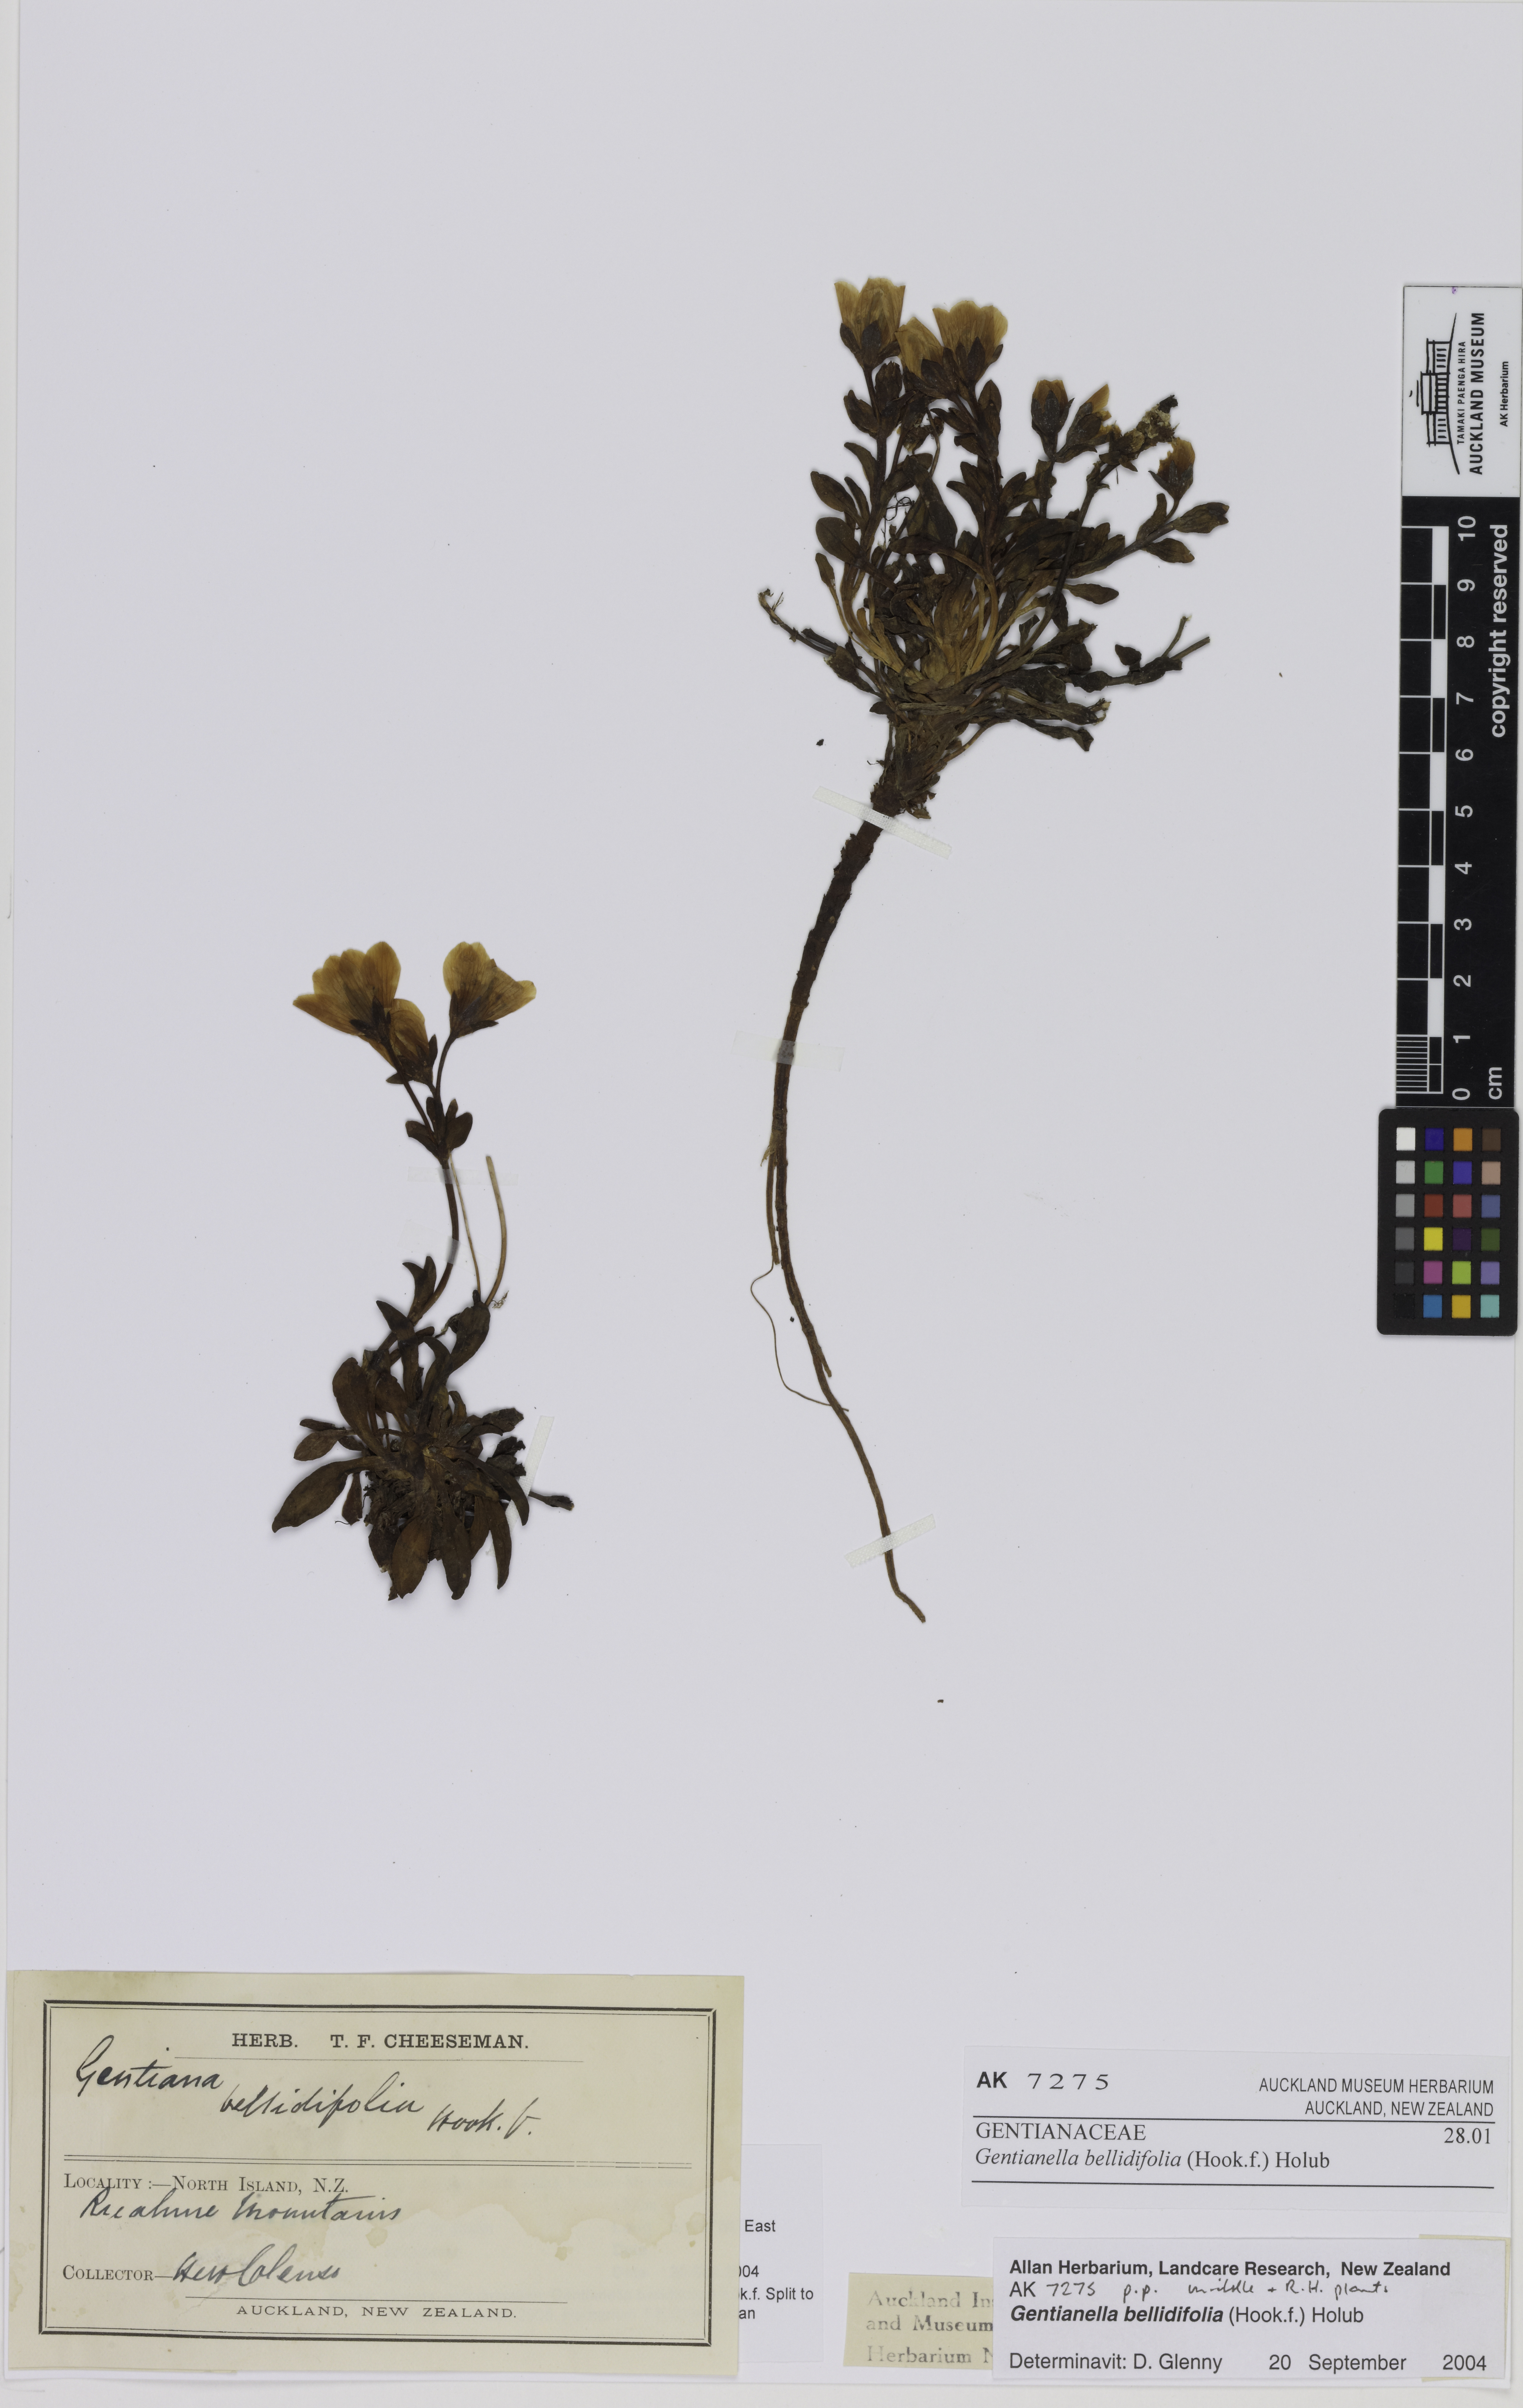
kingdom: Plantae
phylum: Tracheophyta
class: Magnoliopsida
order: Gentianales
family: Gentianaceae
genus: Gentianella
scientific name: Gentianella bellidifolia
